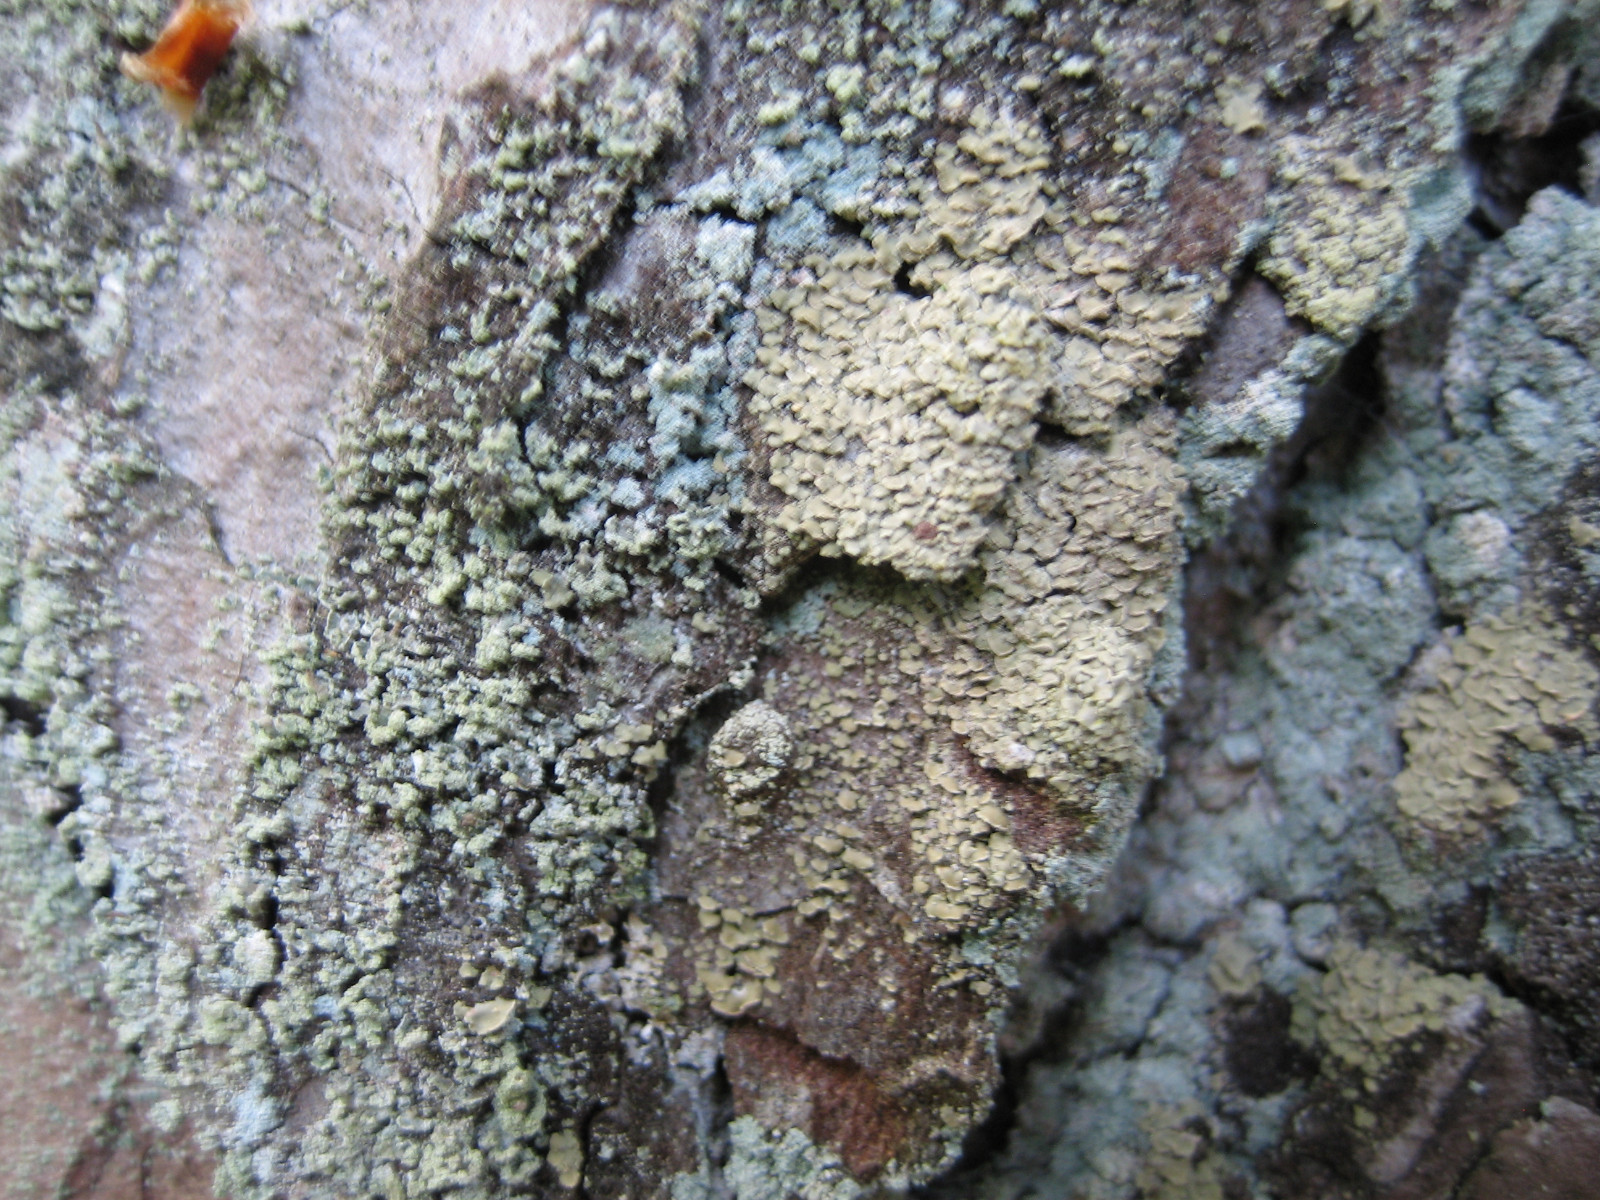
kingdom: Fungi
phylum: Ascomycota
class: Lecanoromycetes
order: Umbilicariales
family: Ophioparmaceae
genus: Hypocenomyce
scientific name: Hypocenomyce scalaris
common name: småskællet muslinglav
